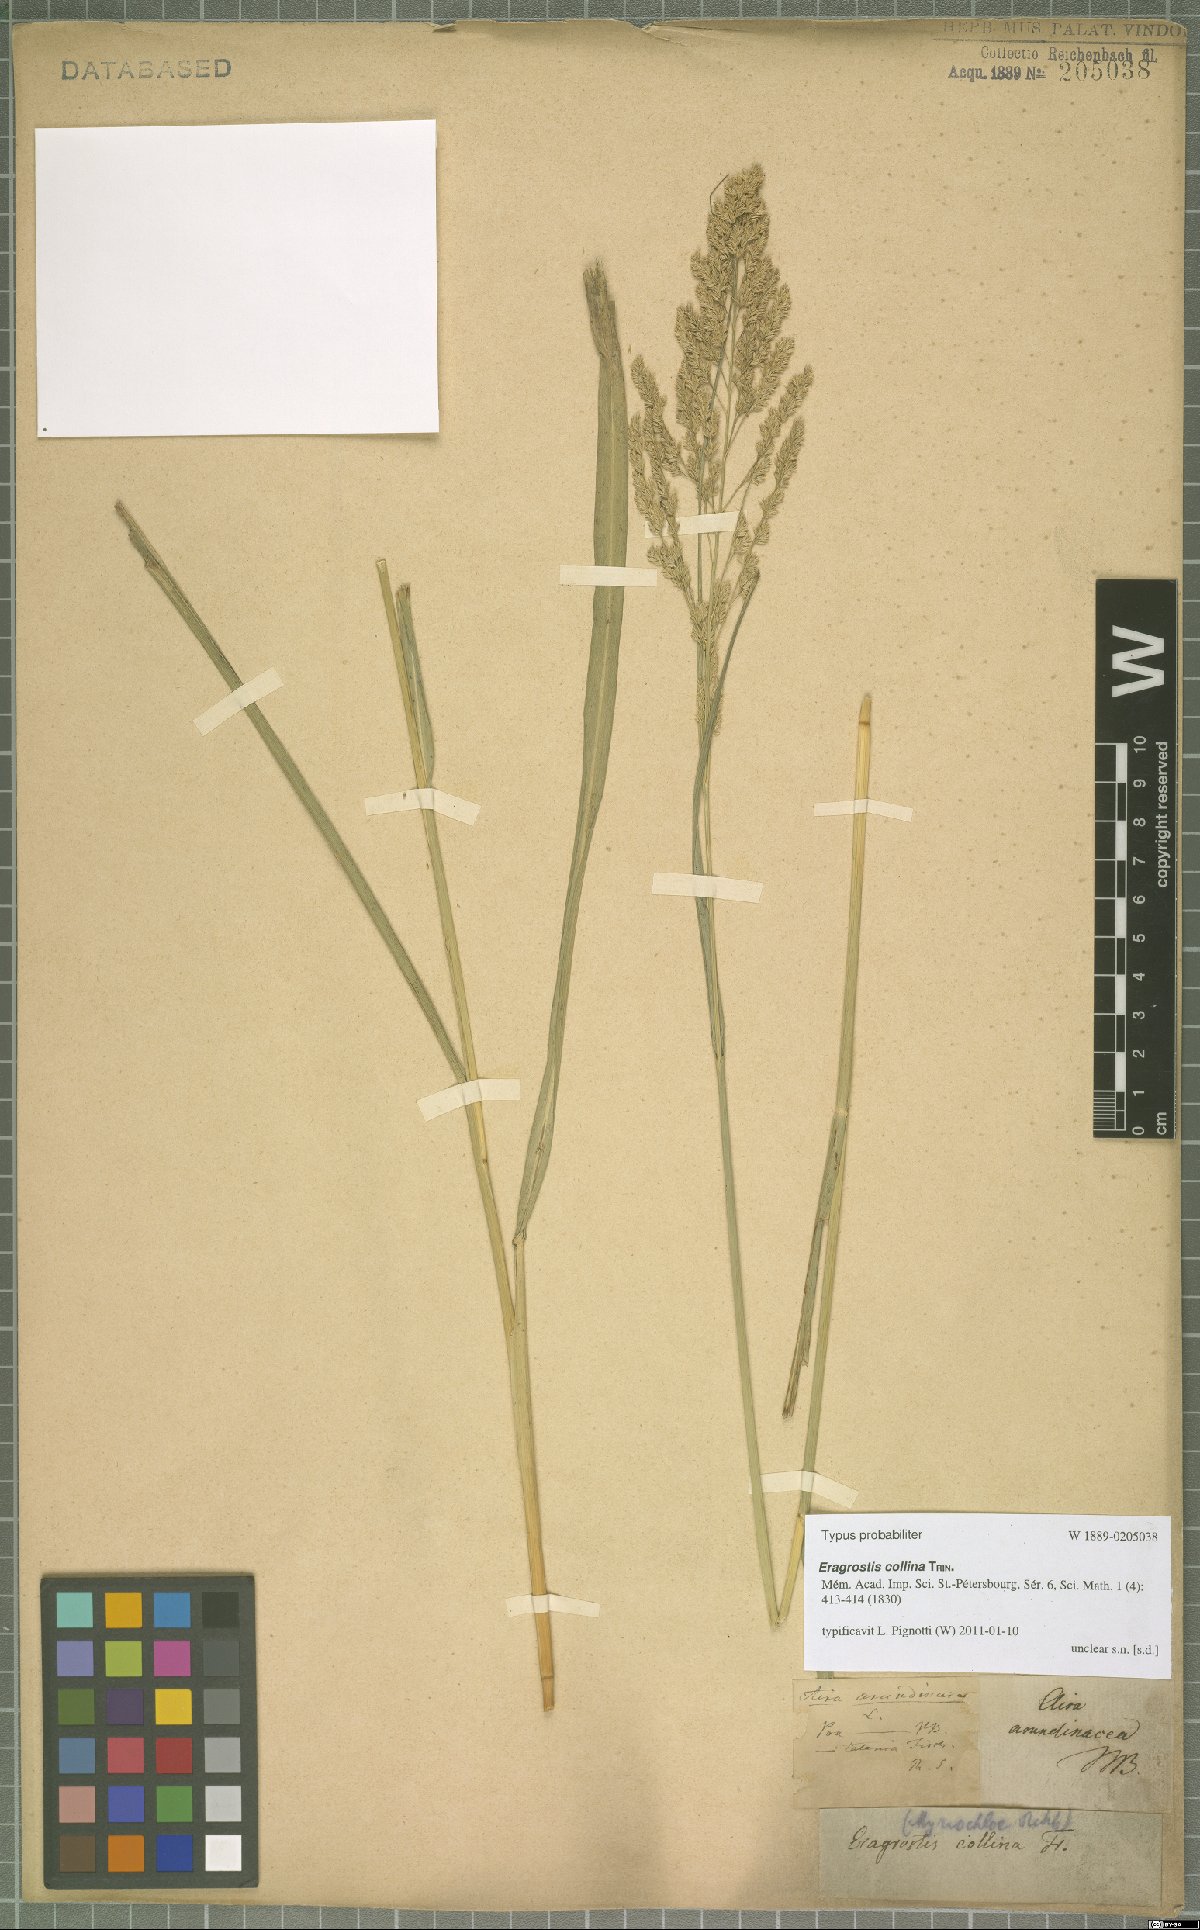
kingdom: Plantae
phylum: Tracheophyta
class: Liliopsida
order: Poales
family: Poaceae
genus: Eragrostis
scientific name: Eragrostis collina
